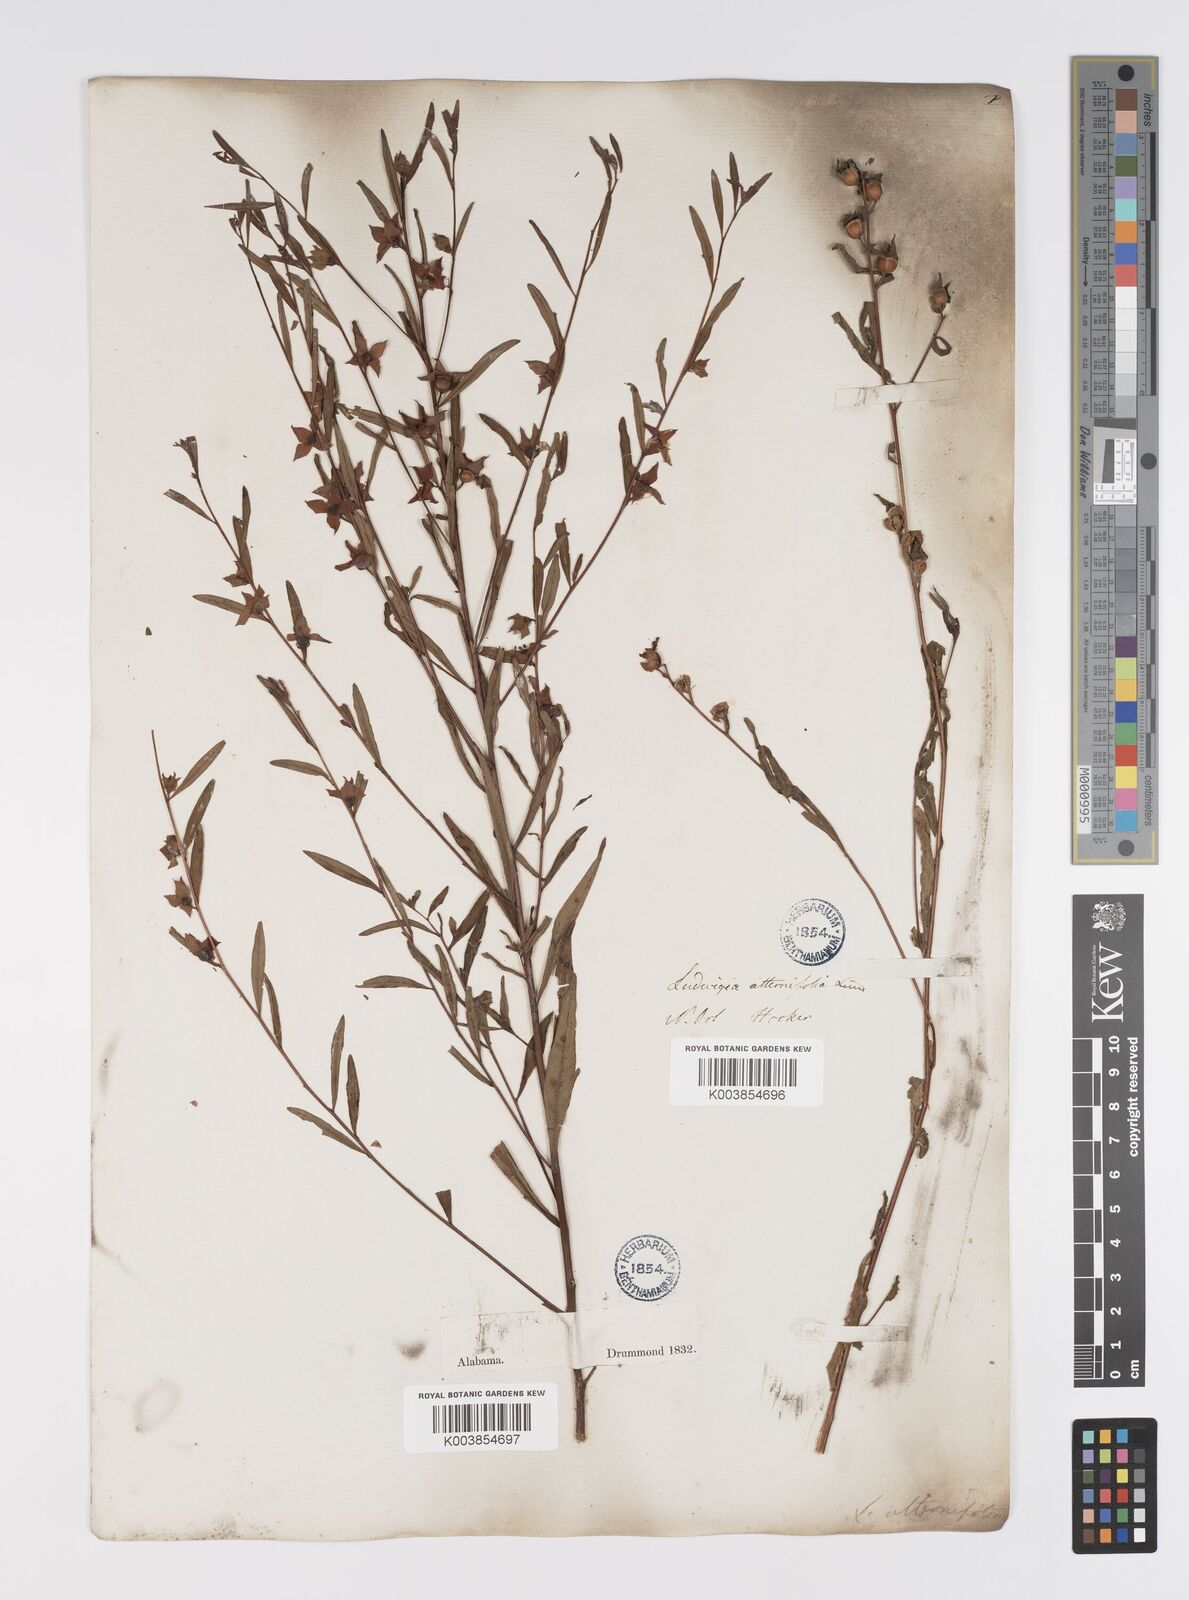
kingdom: Plantae
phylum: Tracheophyta
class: Magnoliopsida
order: Myrtales
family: Onagraceae
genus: Ludwigia
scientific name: Ludwigia alternifolia
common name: Rattlebox
